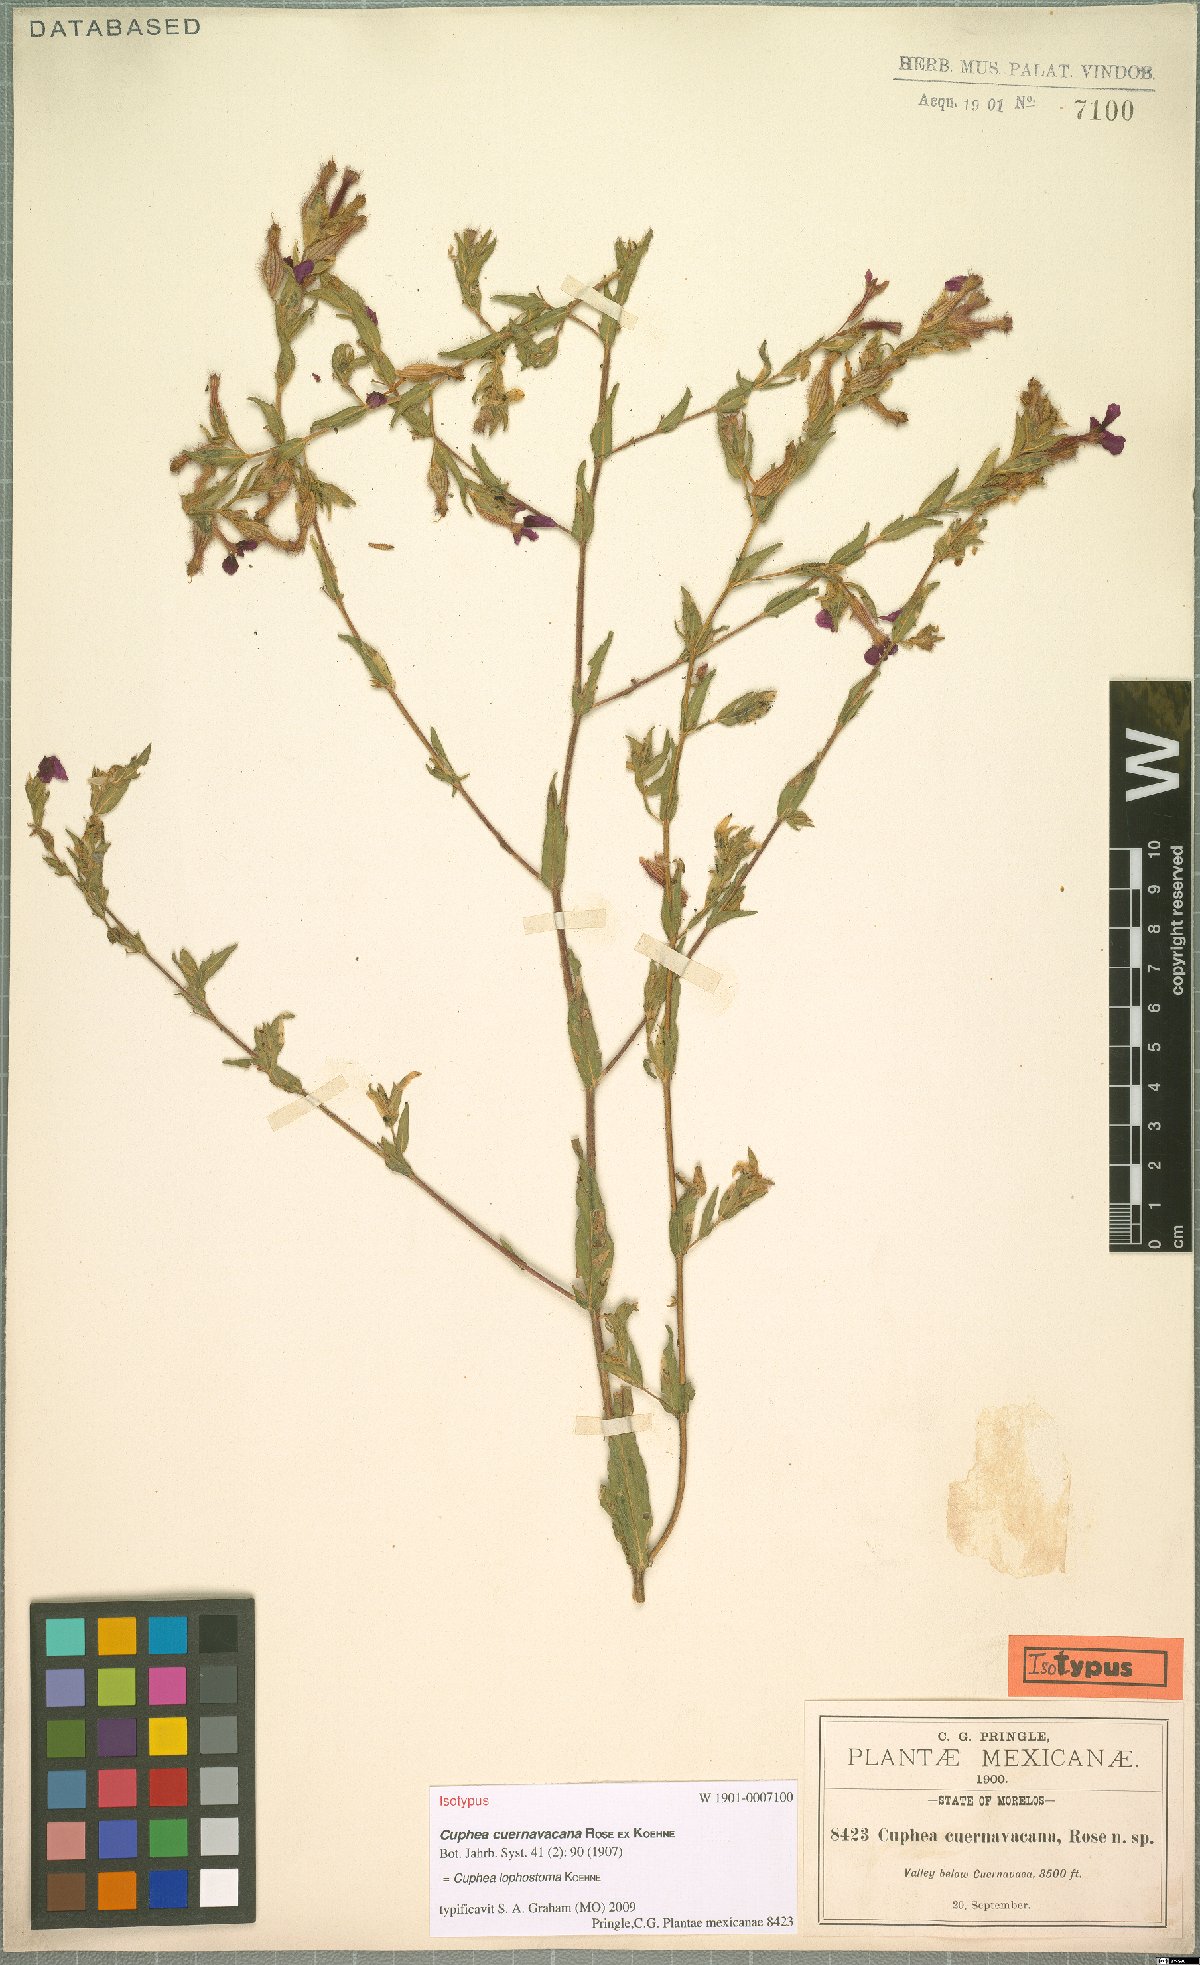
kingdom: Plantae
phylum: Tracheophyta
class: Magnoliopsida
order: Myrtales
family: Lythraceae
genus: Cuphea
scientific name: Cuphea lophostoma
